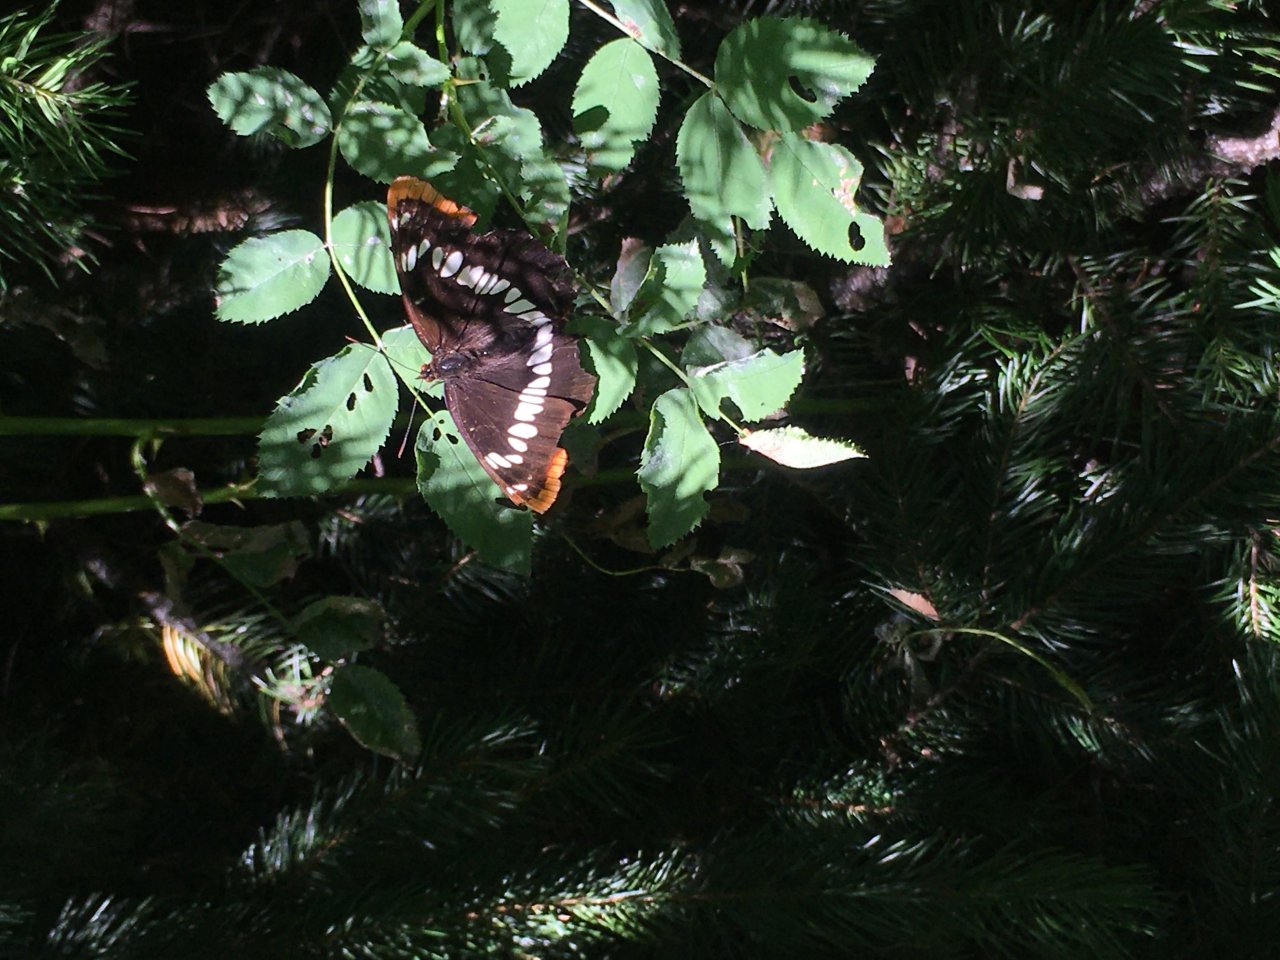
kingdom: Animalia
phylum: Arthropoda
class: Insecta
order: Lepidoptera
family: Nymphalidae
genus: Limenitis
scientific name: Limenitis lorquini
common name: Lorquin's Admiral
